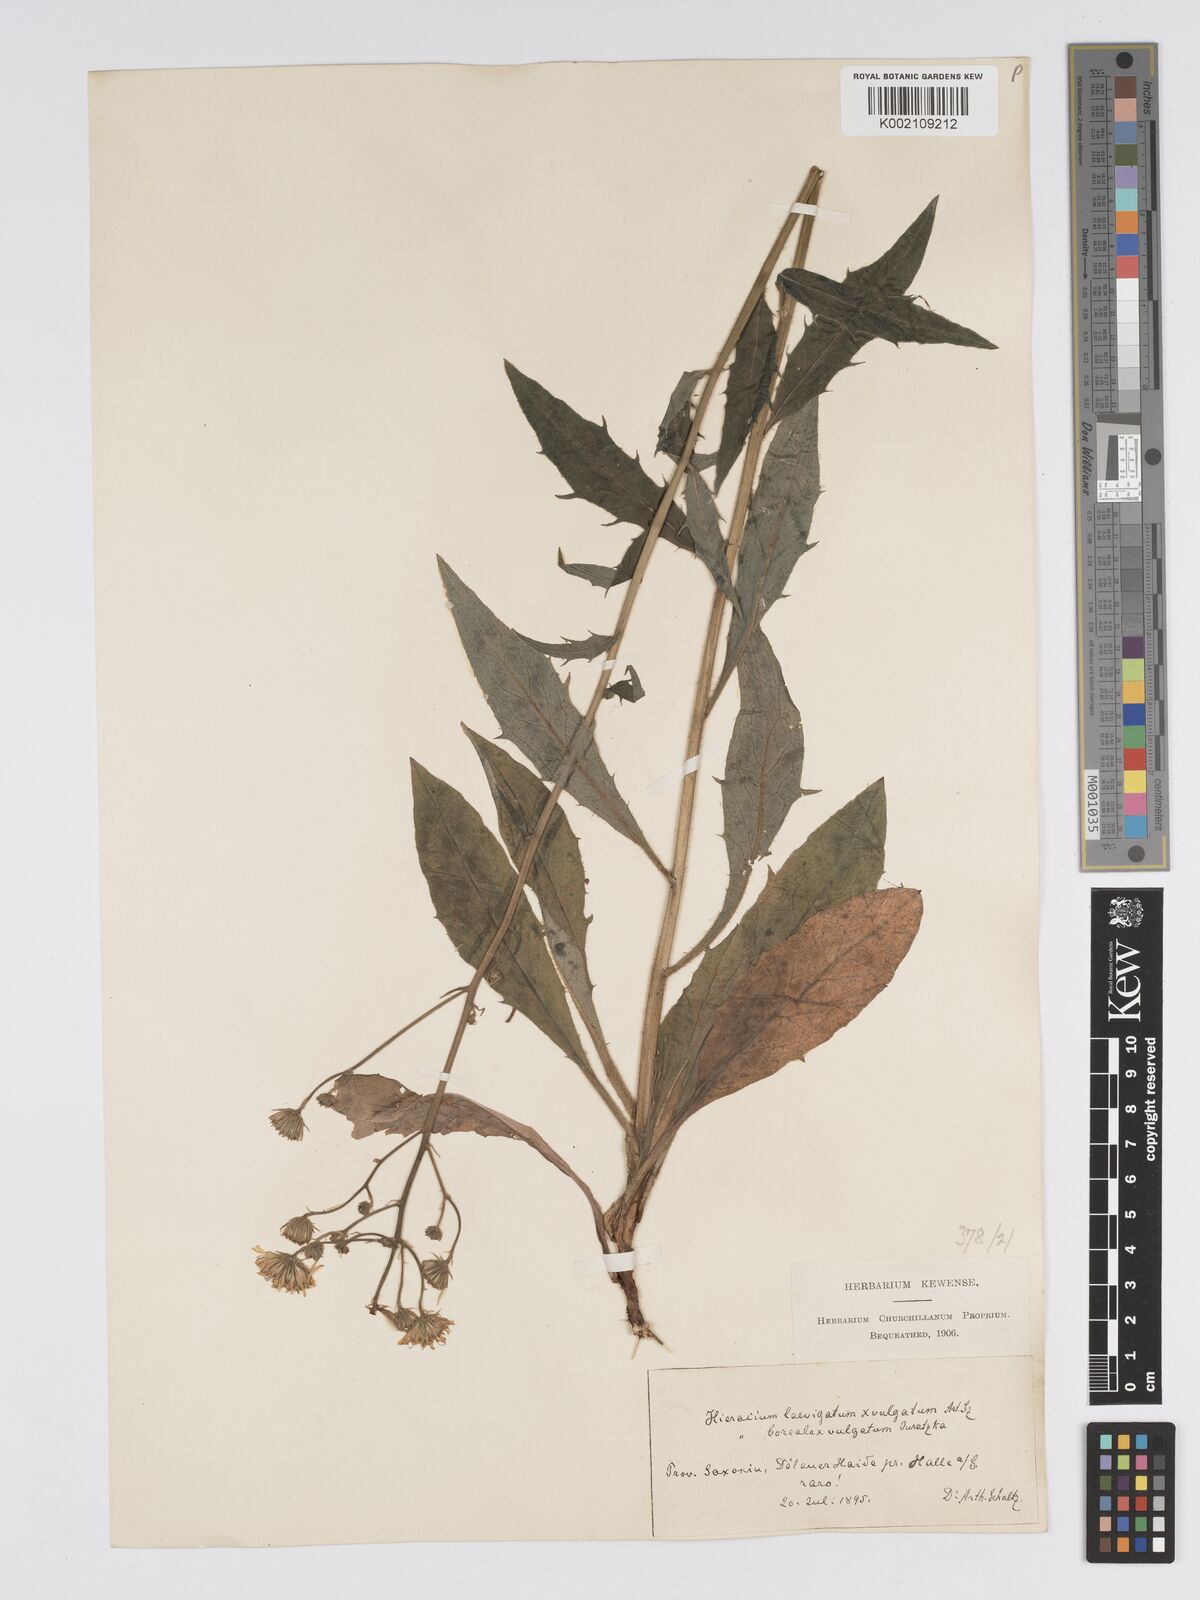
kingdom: Plantae
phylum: Tracheophyta
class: Magnoliopsida
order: Asterales
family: Asteraceae
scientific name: Asteraceae
